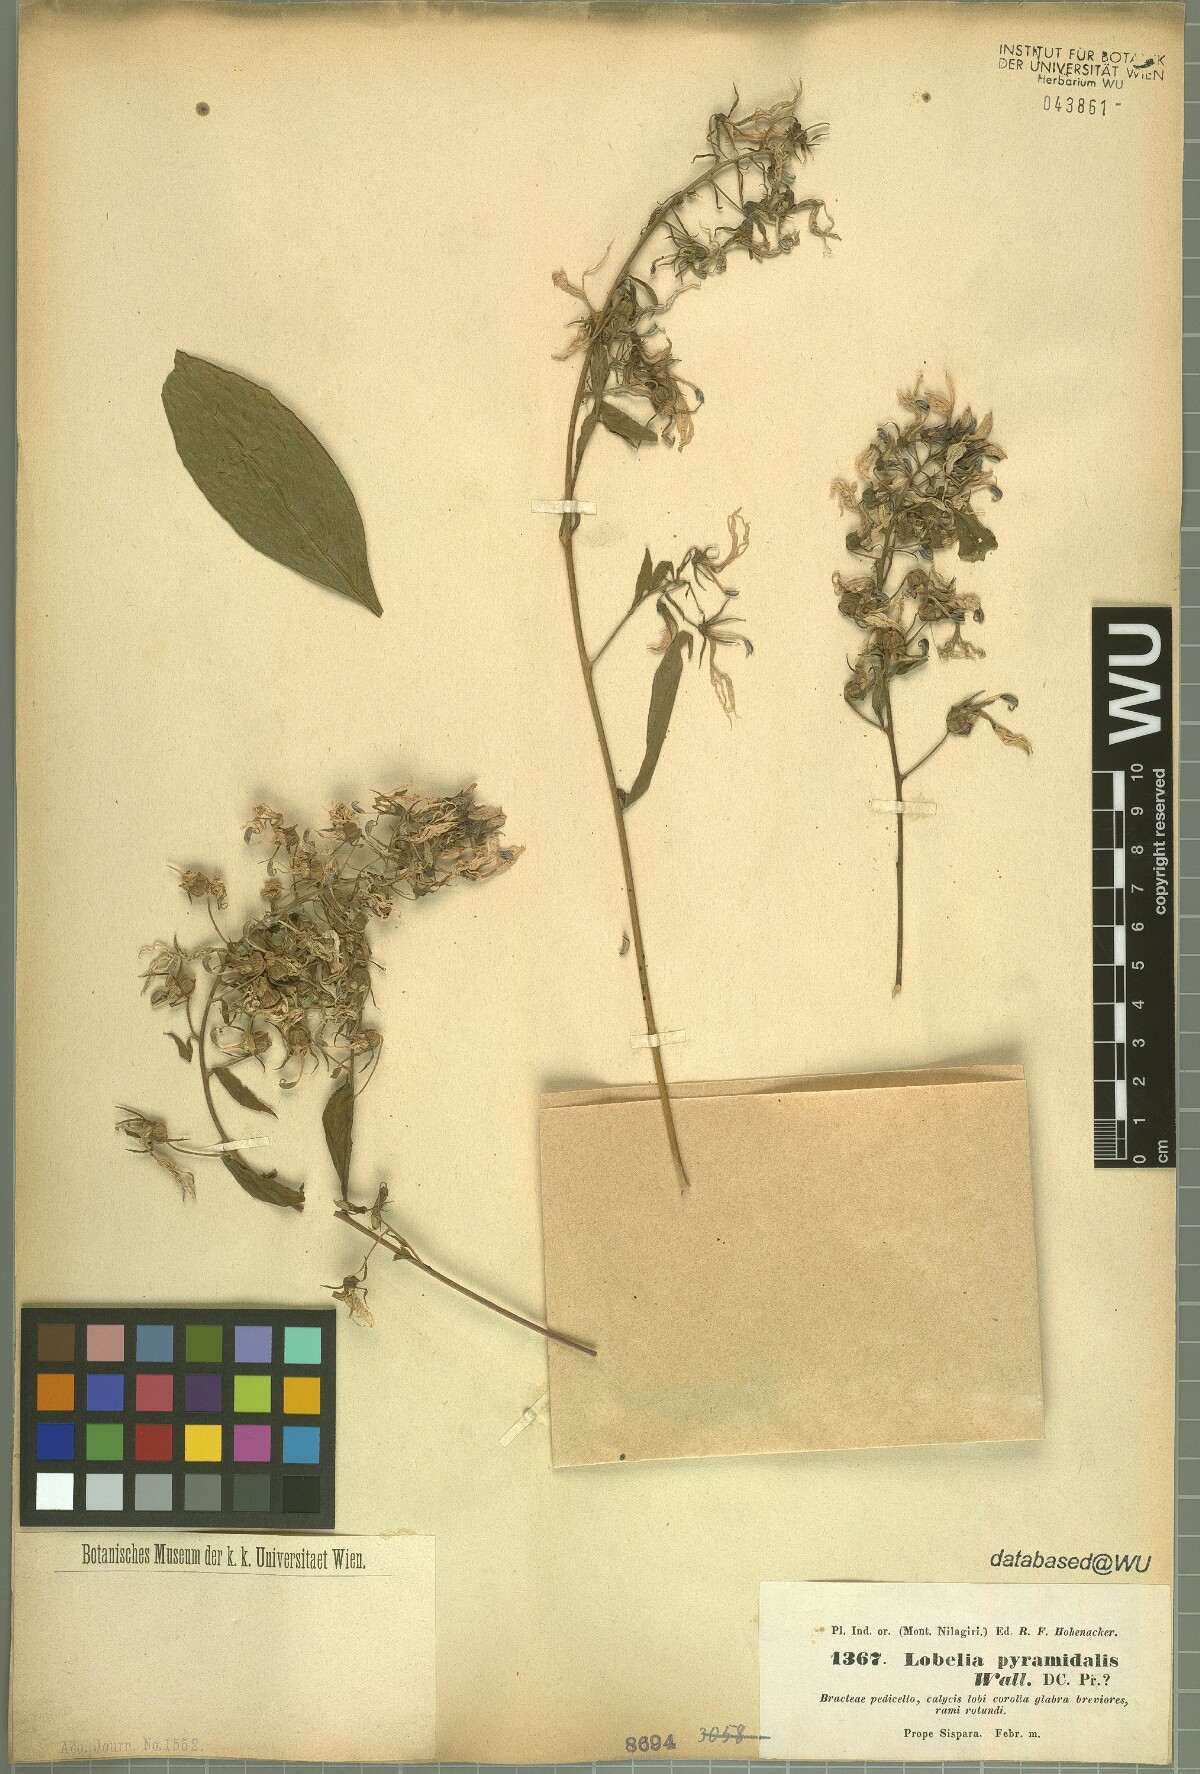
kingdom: Plantae
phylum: Tracheophyta
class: Magnoliopsida
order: Asterales
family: Campanulaceae
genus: Lobelia
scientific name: Lobelia pyramidalis
